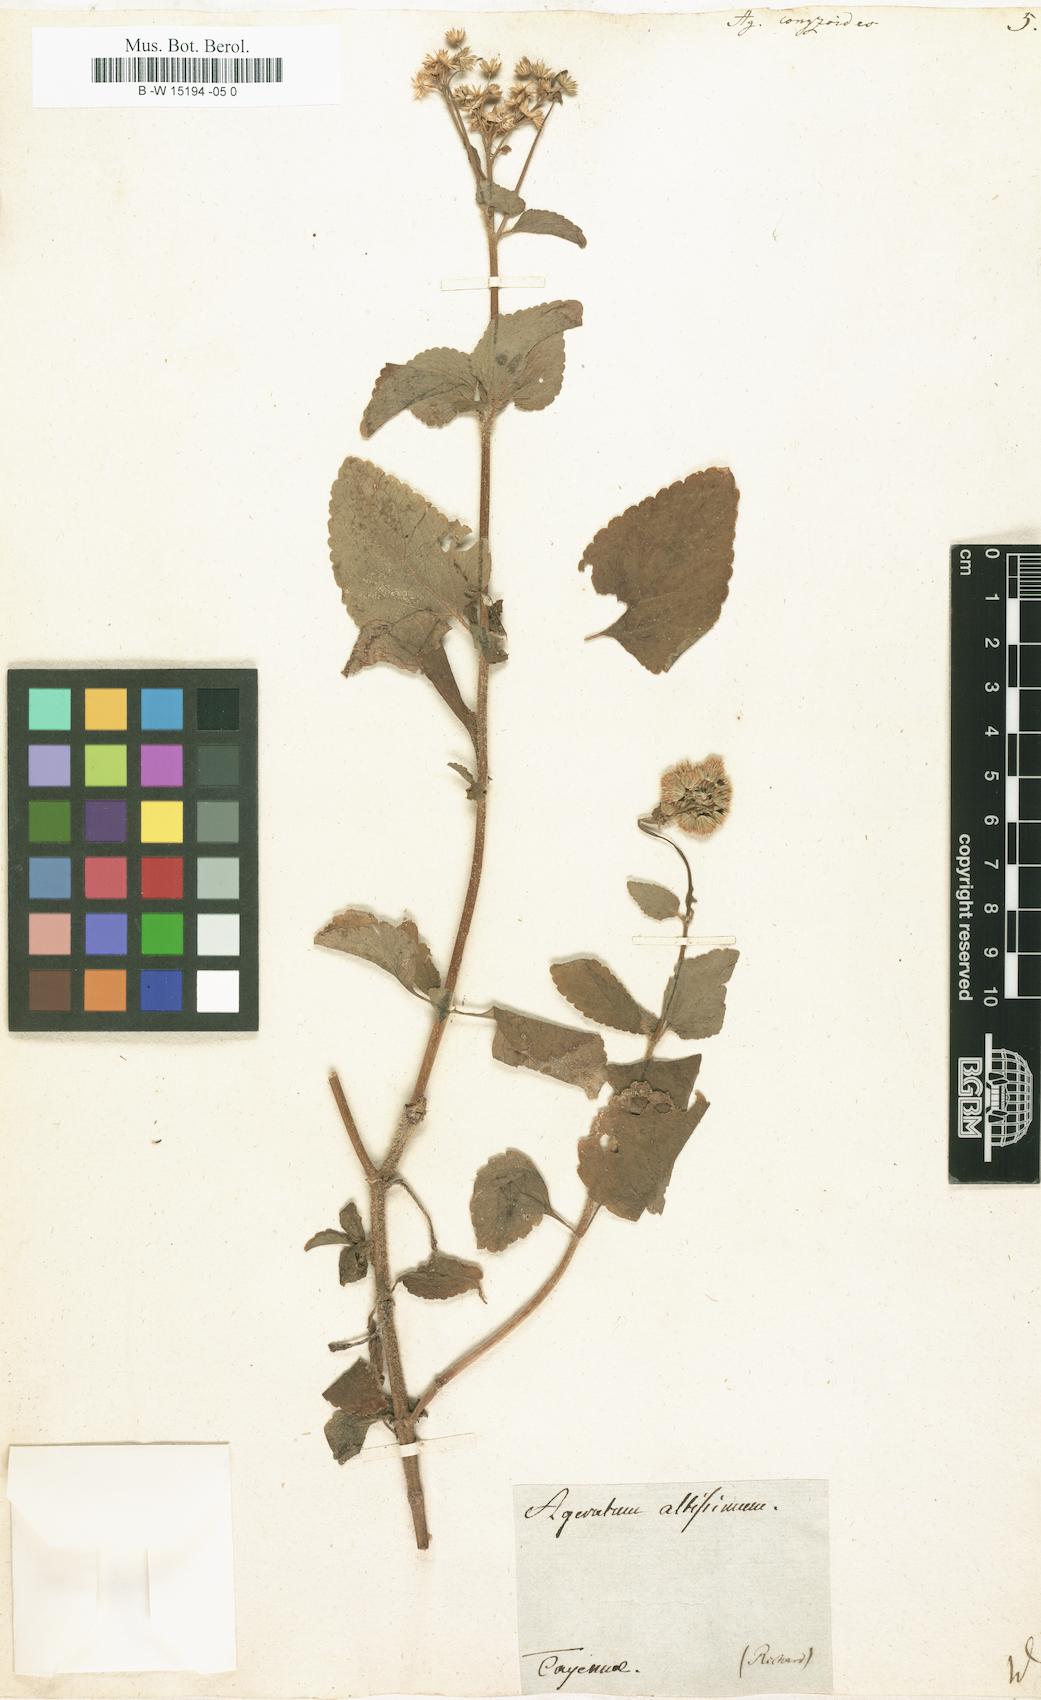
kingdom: Plantae
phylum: Tracheophyta
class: Magnoliopsida
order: Asterales
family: Asteraceae
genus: Ageratum
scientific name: Ageratum conyzoides
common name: Tropical whiteweed
